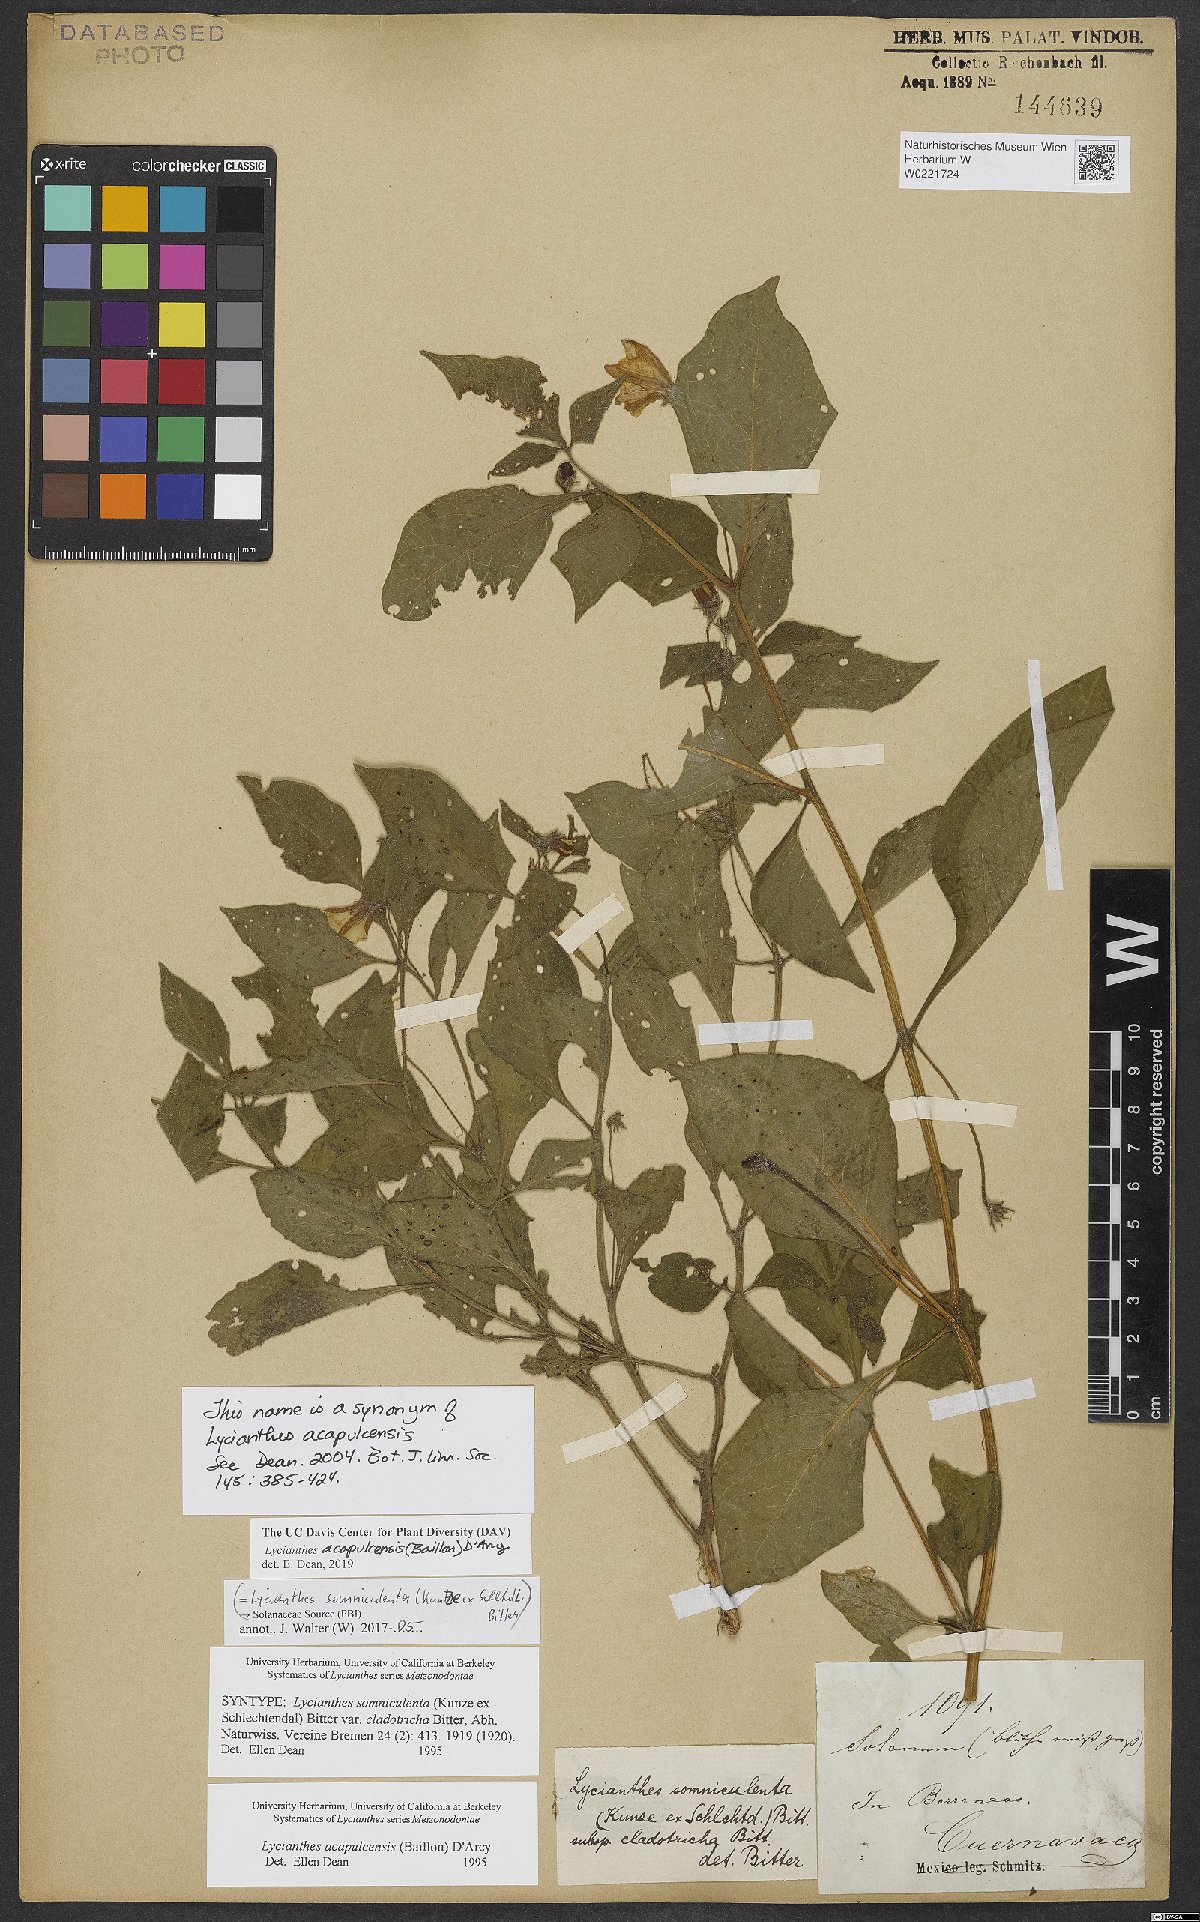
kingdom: Plantae
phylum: Tracheophyta
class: Magnoliopsida
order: Solanales
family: Solanaceae
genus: Lycianthes
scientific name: Lycianthes acapulcensis
